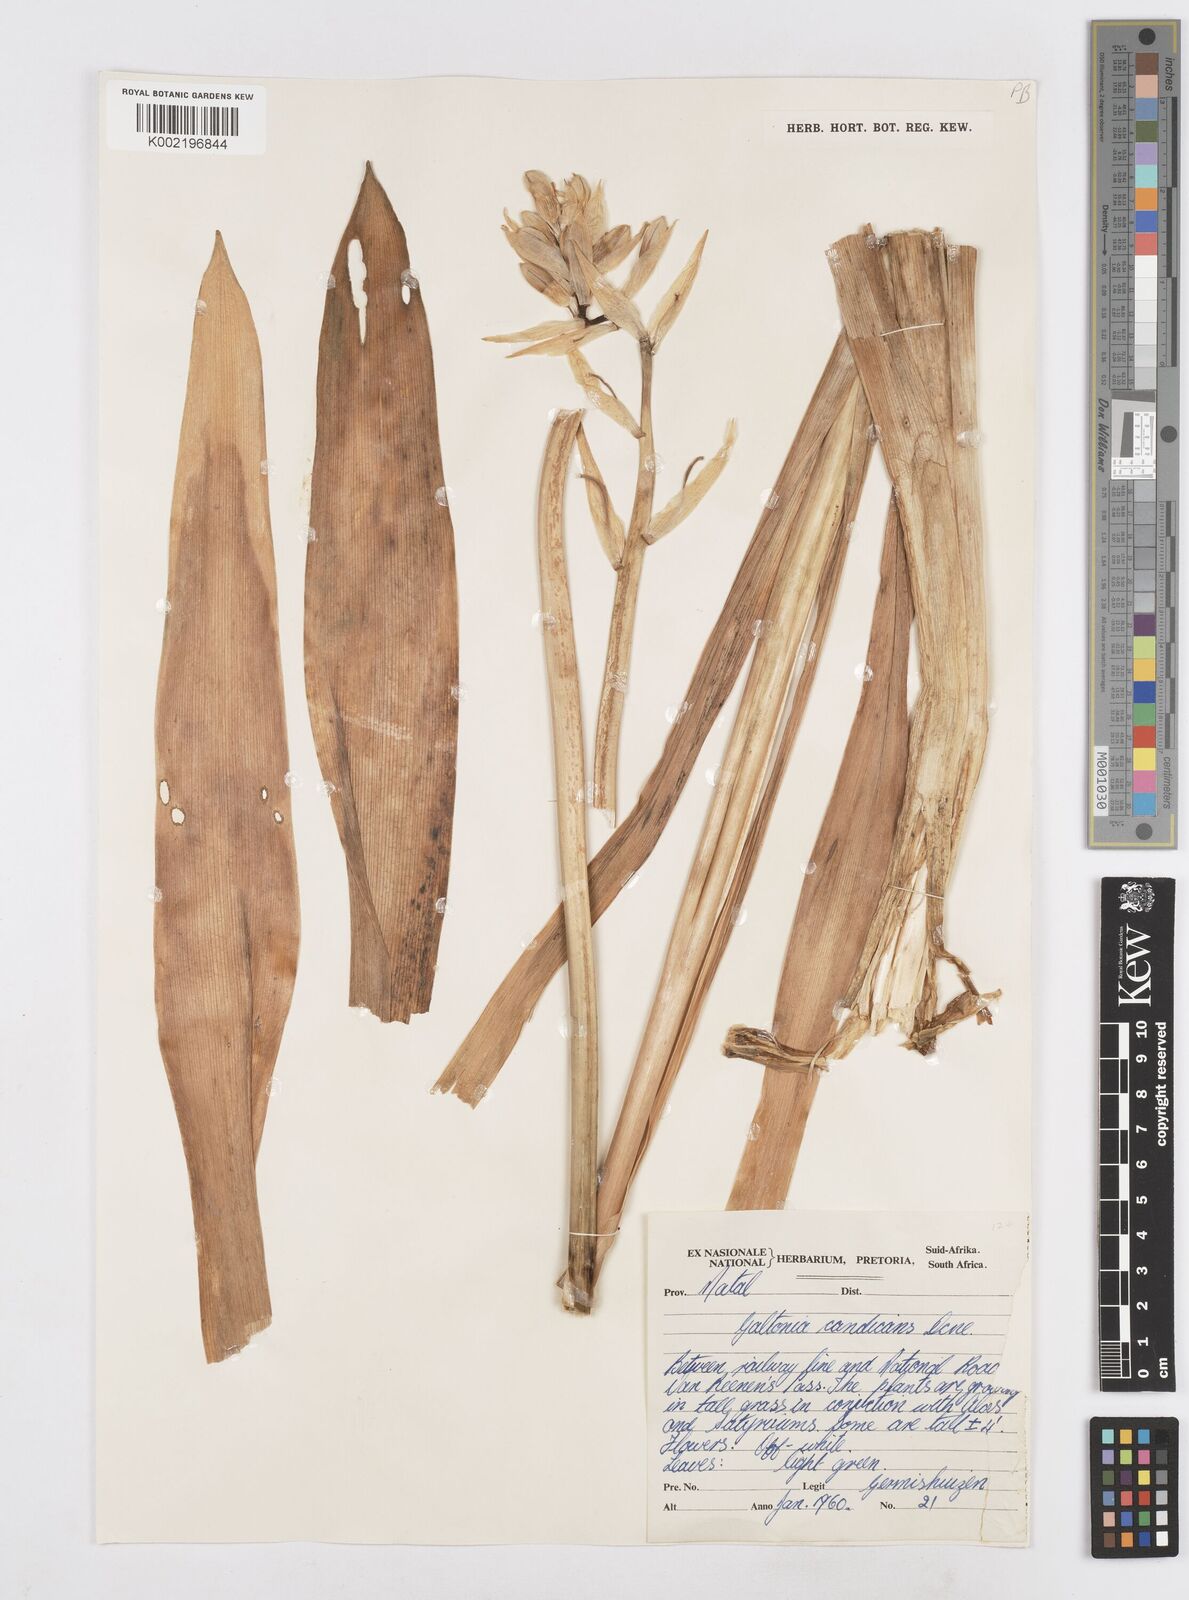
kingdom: Plantae
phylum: Tracheophyta
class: Liliopsida
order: Asparagales
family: Asparagaceae
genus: Ornithogalum
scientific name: Ornithogalum candicans
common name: Summer-hyacinth
